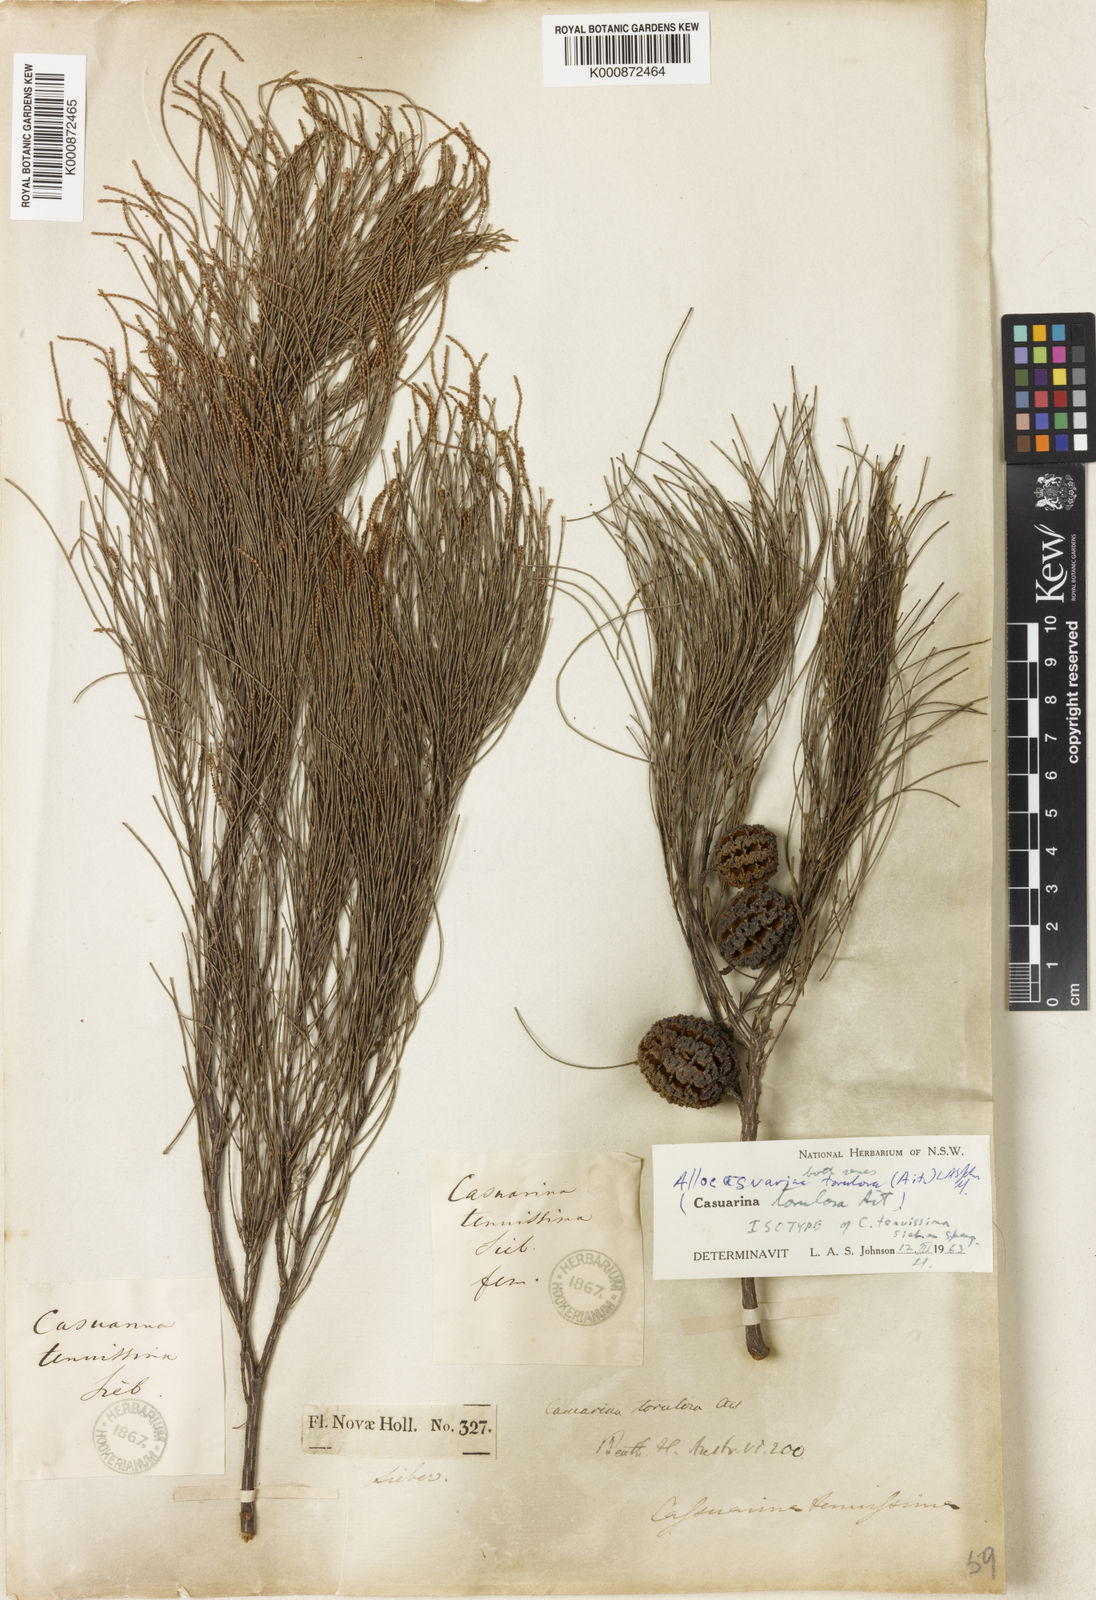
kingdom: Plantae
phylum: Tracheophyta
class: Magnoliopsida
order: Fagales
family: Casuarinaceae
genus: Allocasuarina
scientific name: Allocasuarina torulosa
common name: Forest-oak
